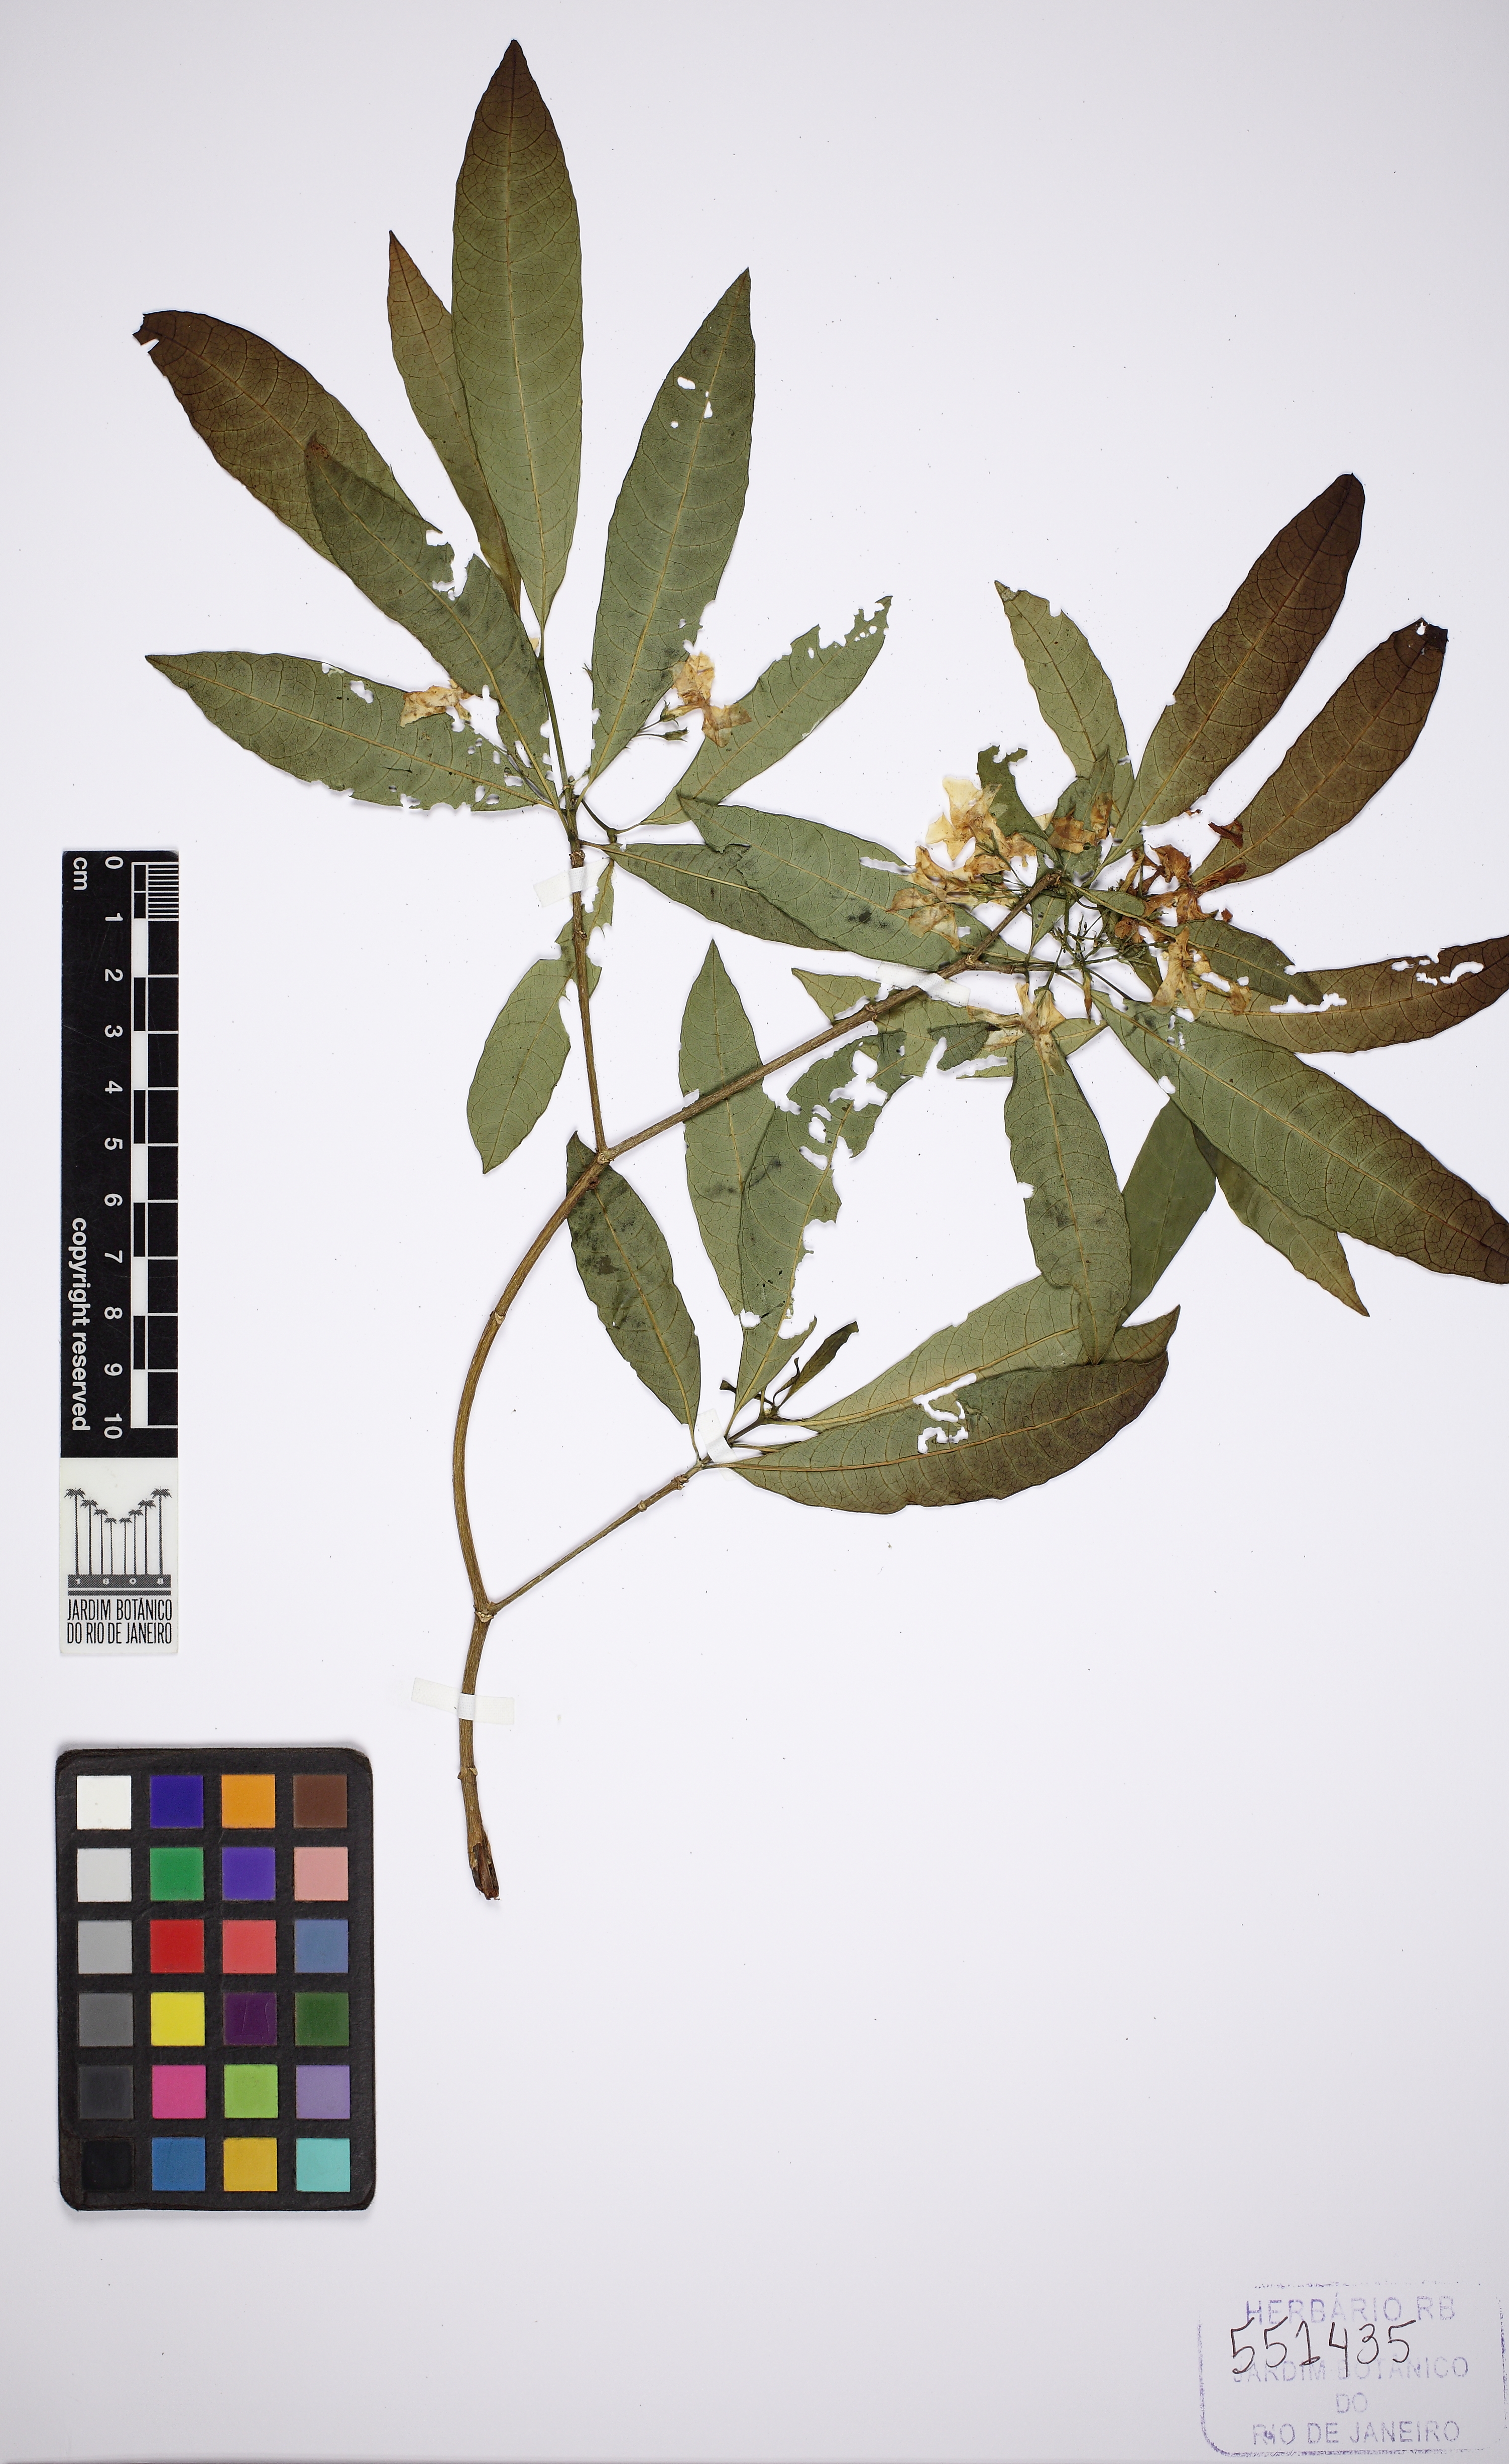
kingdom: Plantae
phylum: Tracheophyta
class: Magnoliopsida
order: Gentianales
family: Apocynaceae
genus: Tabernaemontana
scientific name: Tabernaemontana catharinensis
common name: Pinwheel-flower
